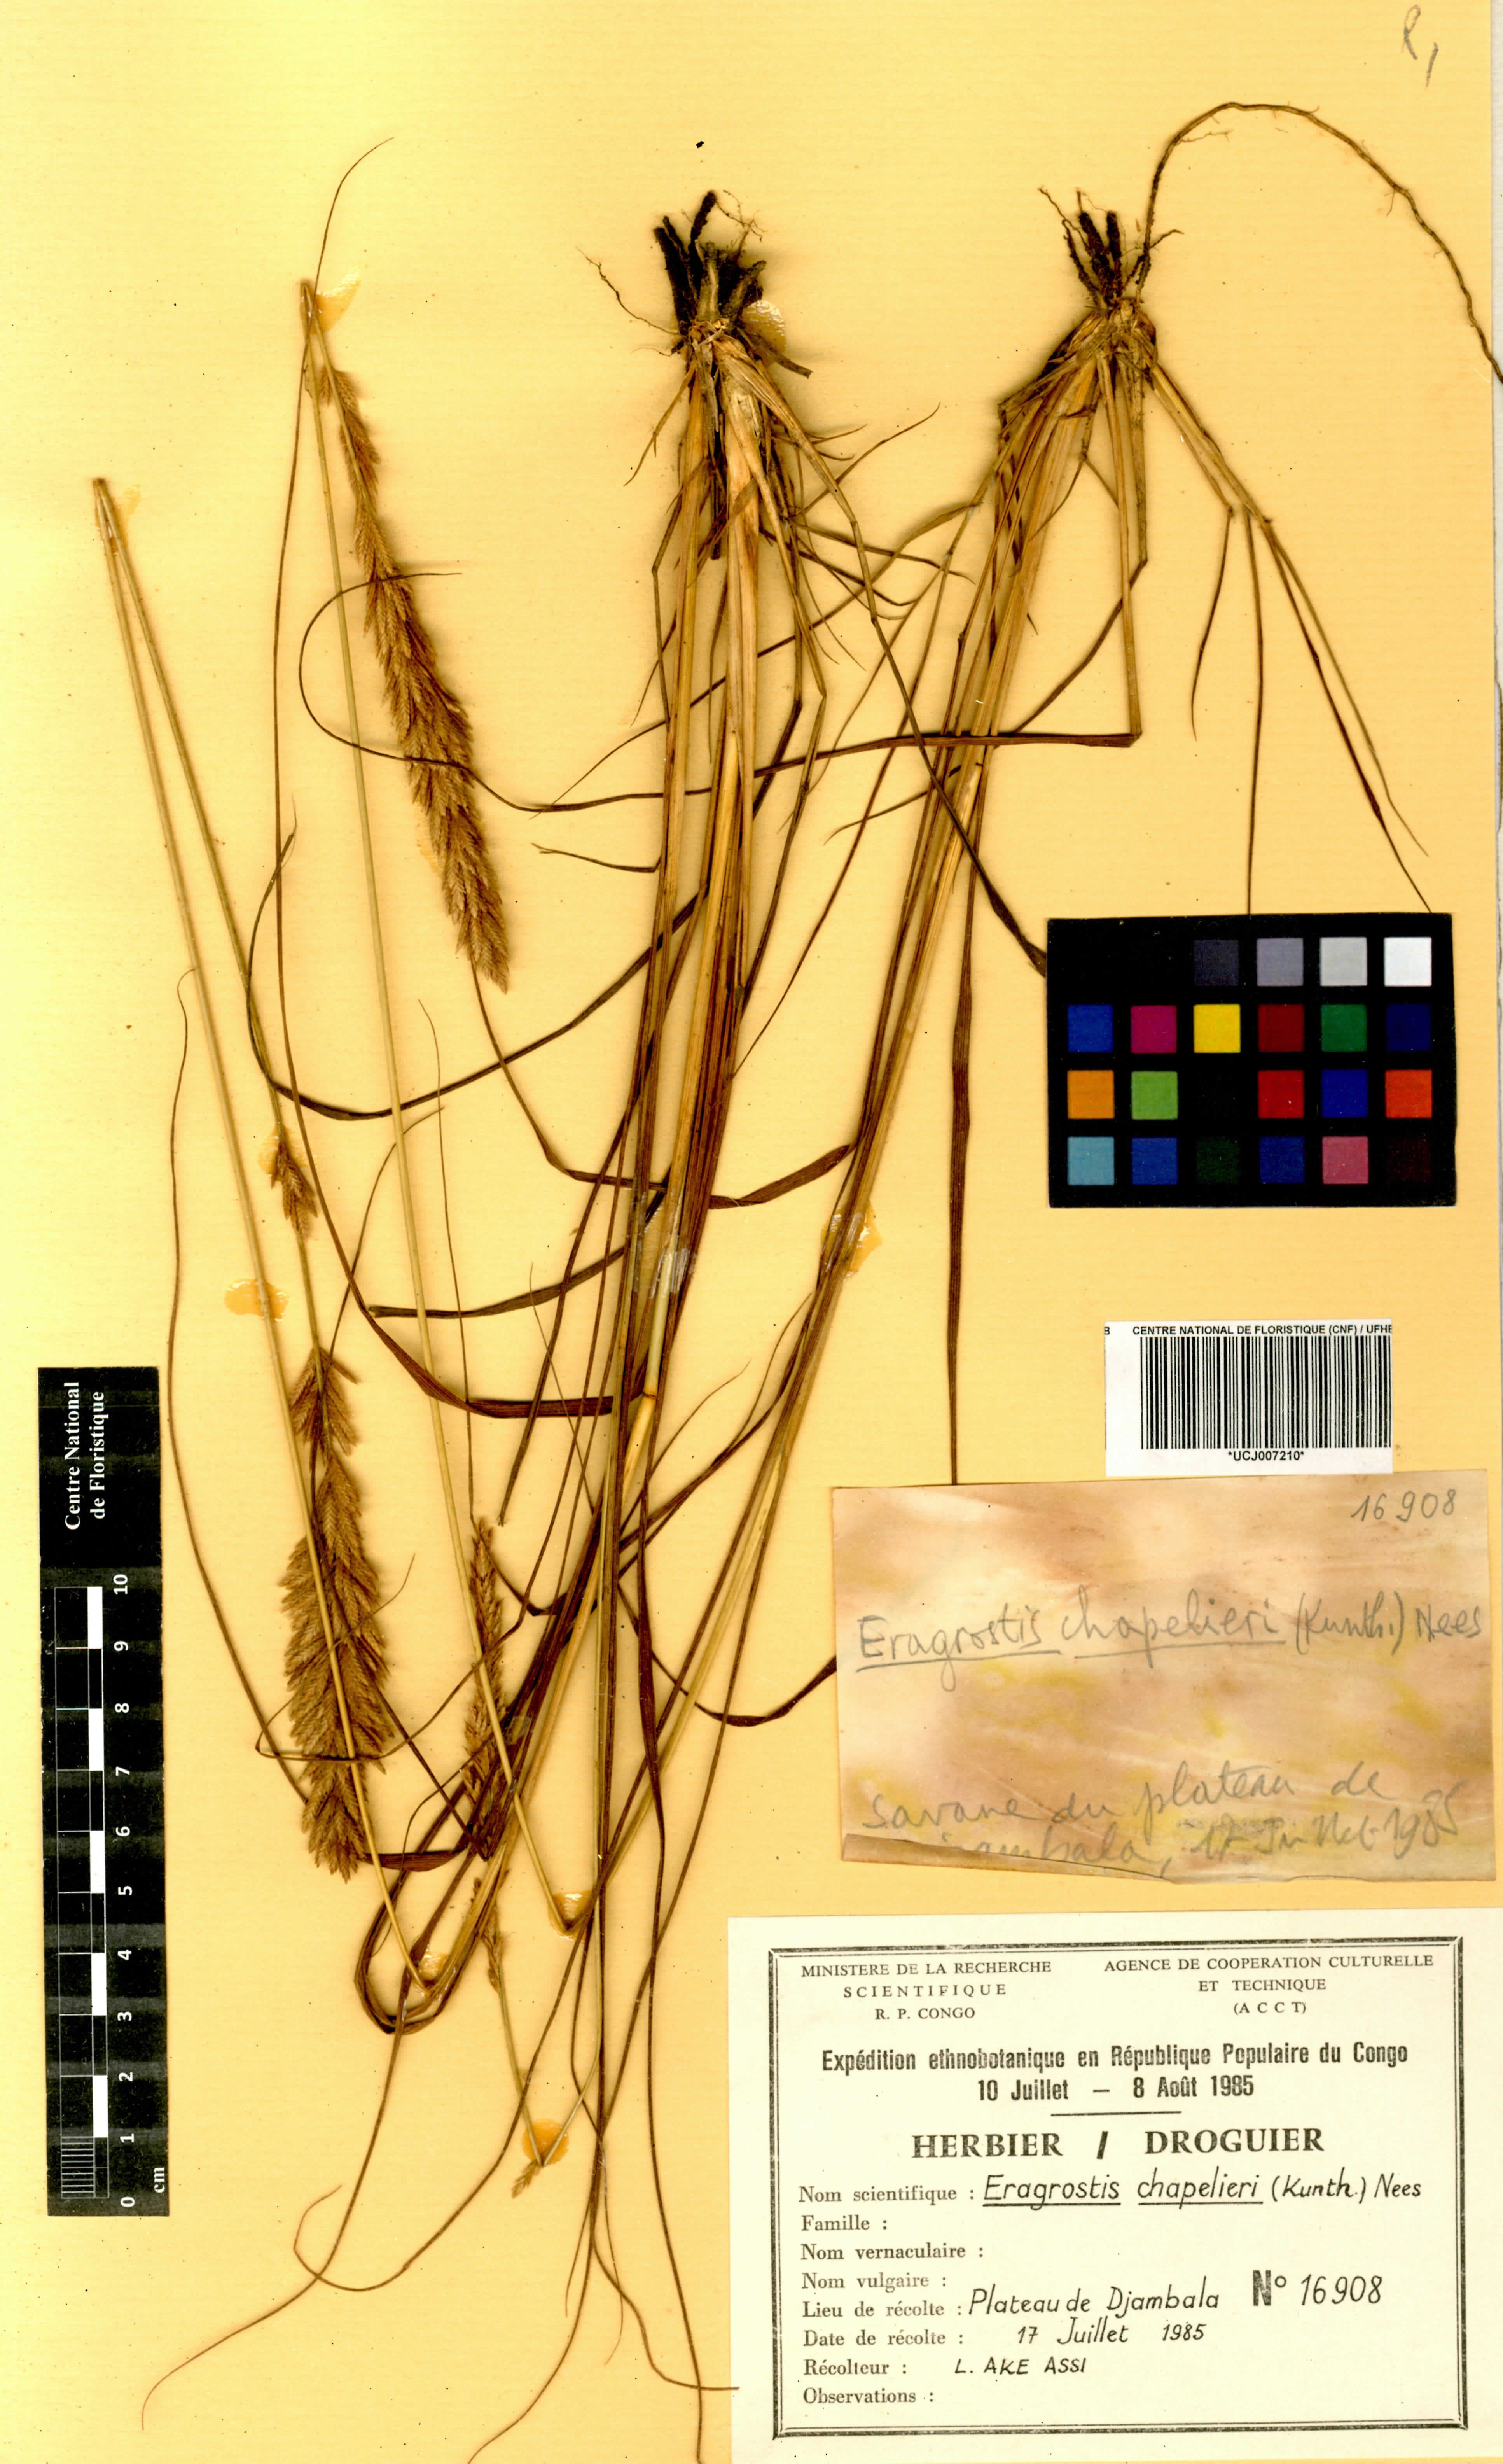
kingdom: Plantae
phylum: Tracheophyta
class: Liliopsida
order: Poales
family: Poaceae
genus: Eragrostis
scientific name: Eragrostis chapelieri
